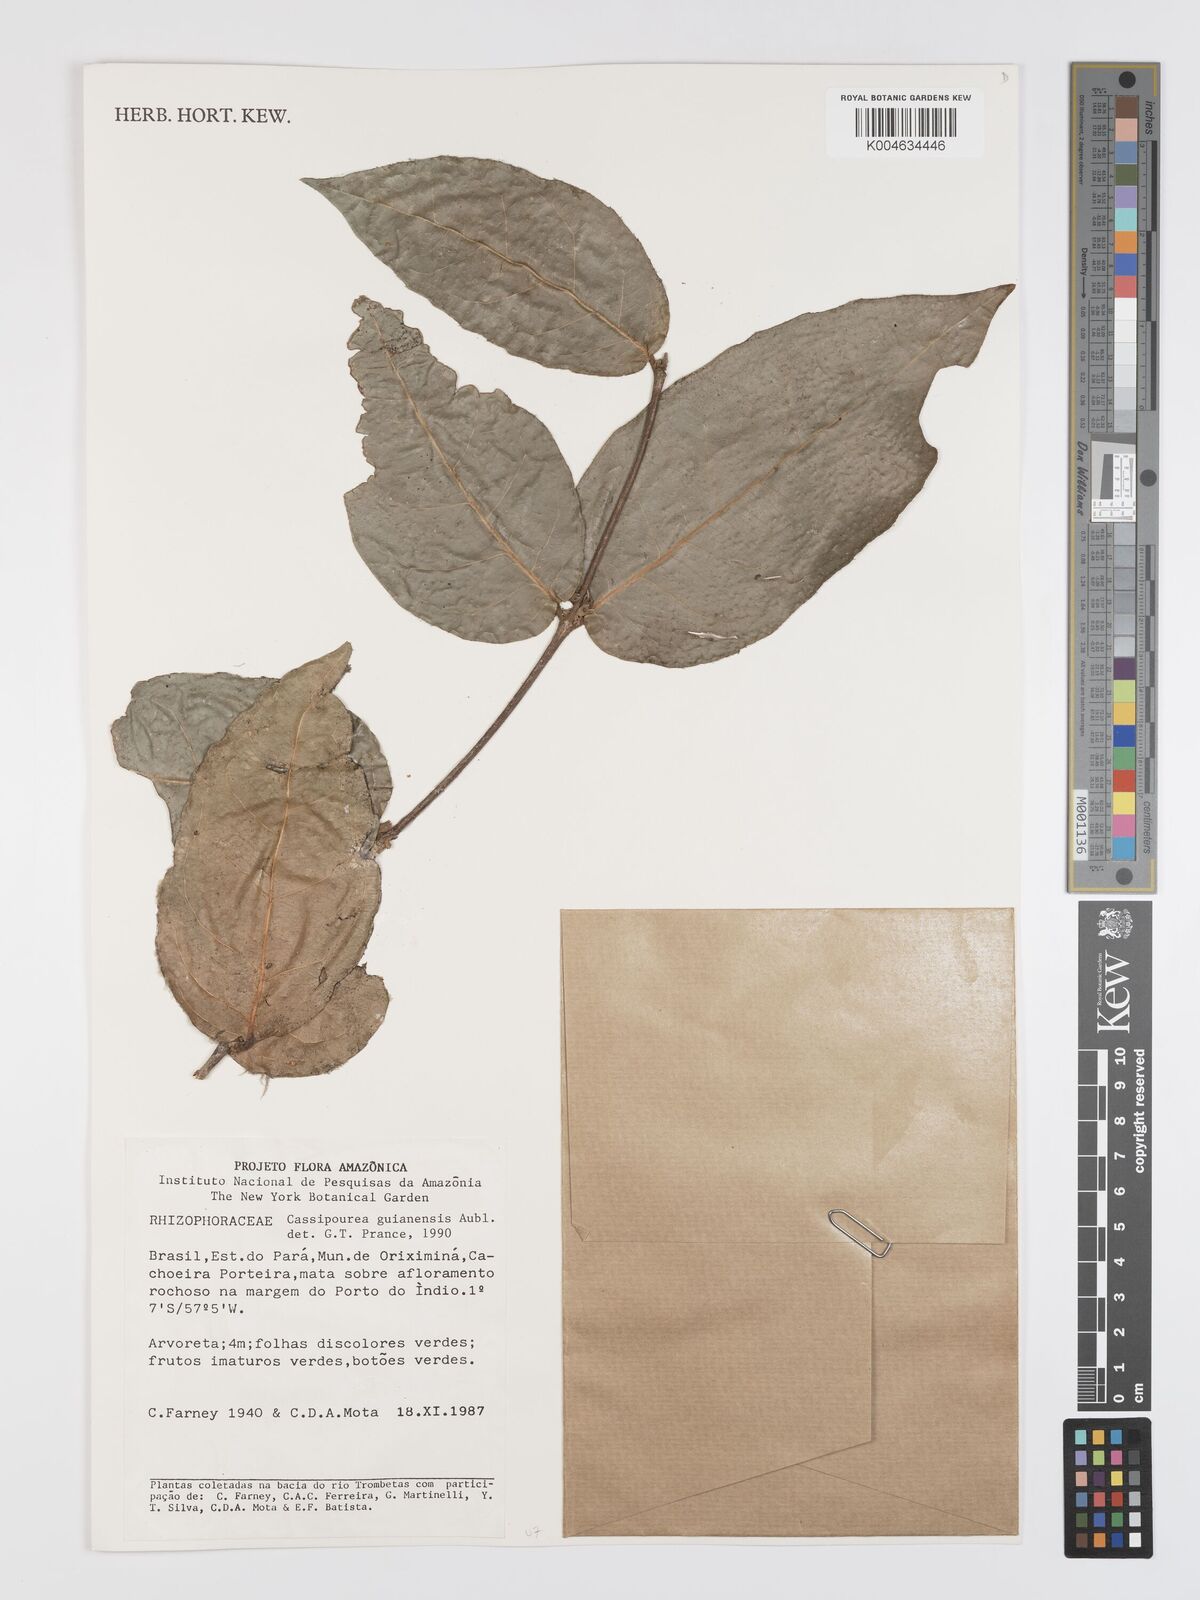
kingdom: Plantae
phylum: Tracheophyta
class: Magnoliopsida
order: Malpighiales
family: Rhizophoraceae
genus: Cassipourea
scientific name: Cassipourea guianensis
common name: Bastard waterwood
